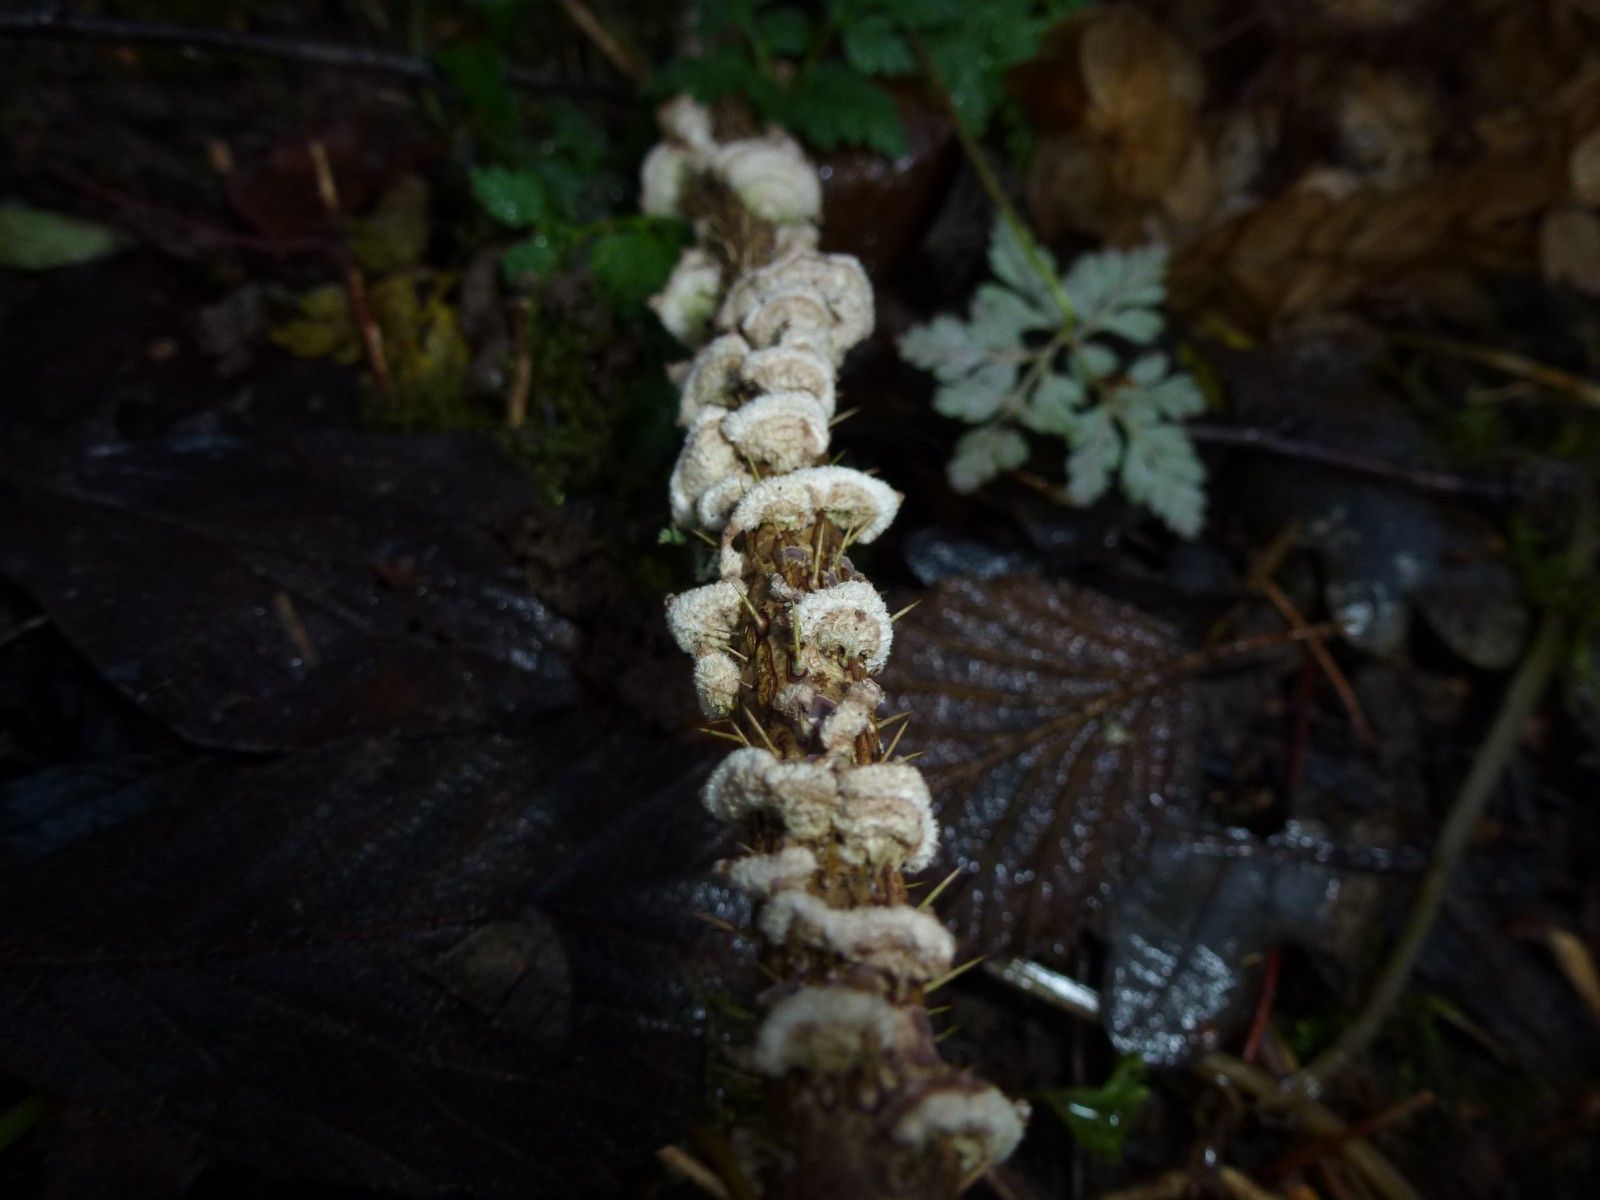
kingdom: Fungi
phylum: Basidiomycota
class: Agaricomycetes
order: Agaricales
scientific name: Agaricales
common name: champignonordenen
